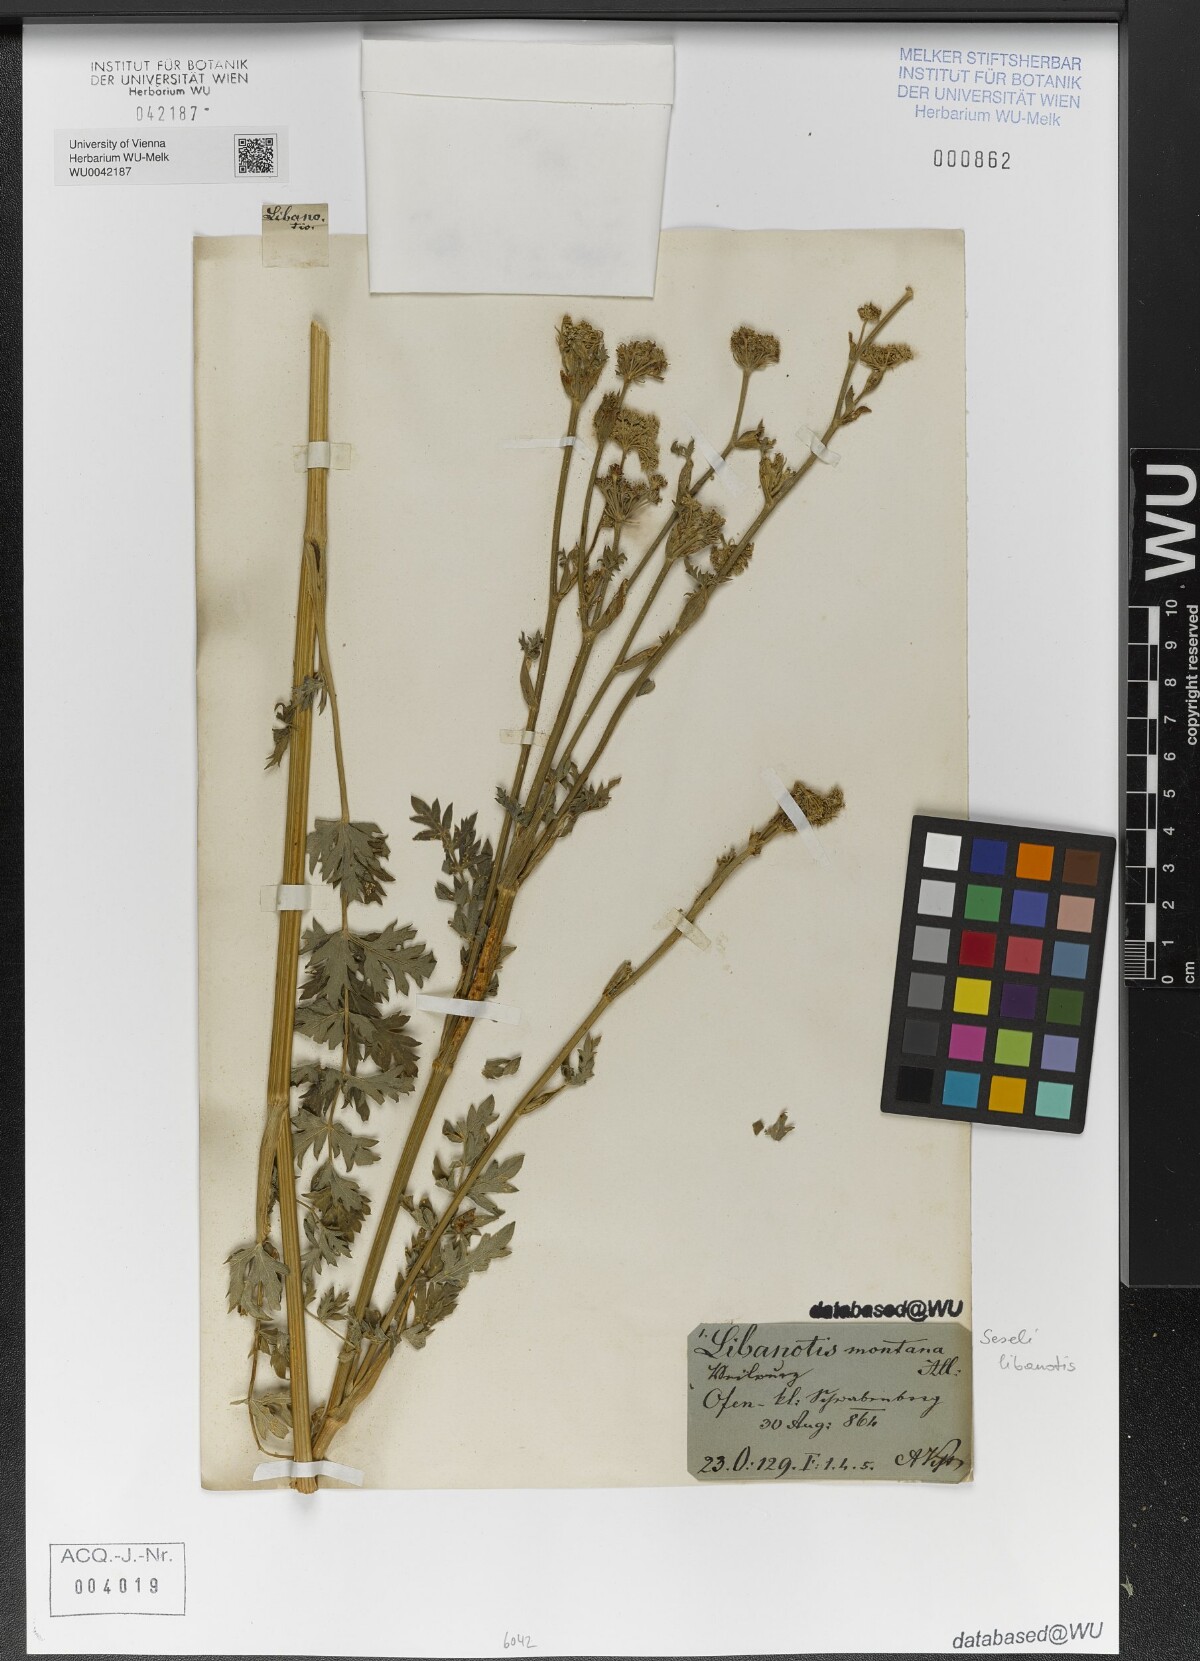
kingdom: Plantae
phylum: Tracheophyta
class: Magnoliopsida
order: Apiales
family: Apiaceae
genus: Seseli
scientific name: Seseli libanotis
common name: Mooncarrot
